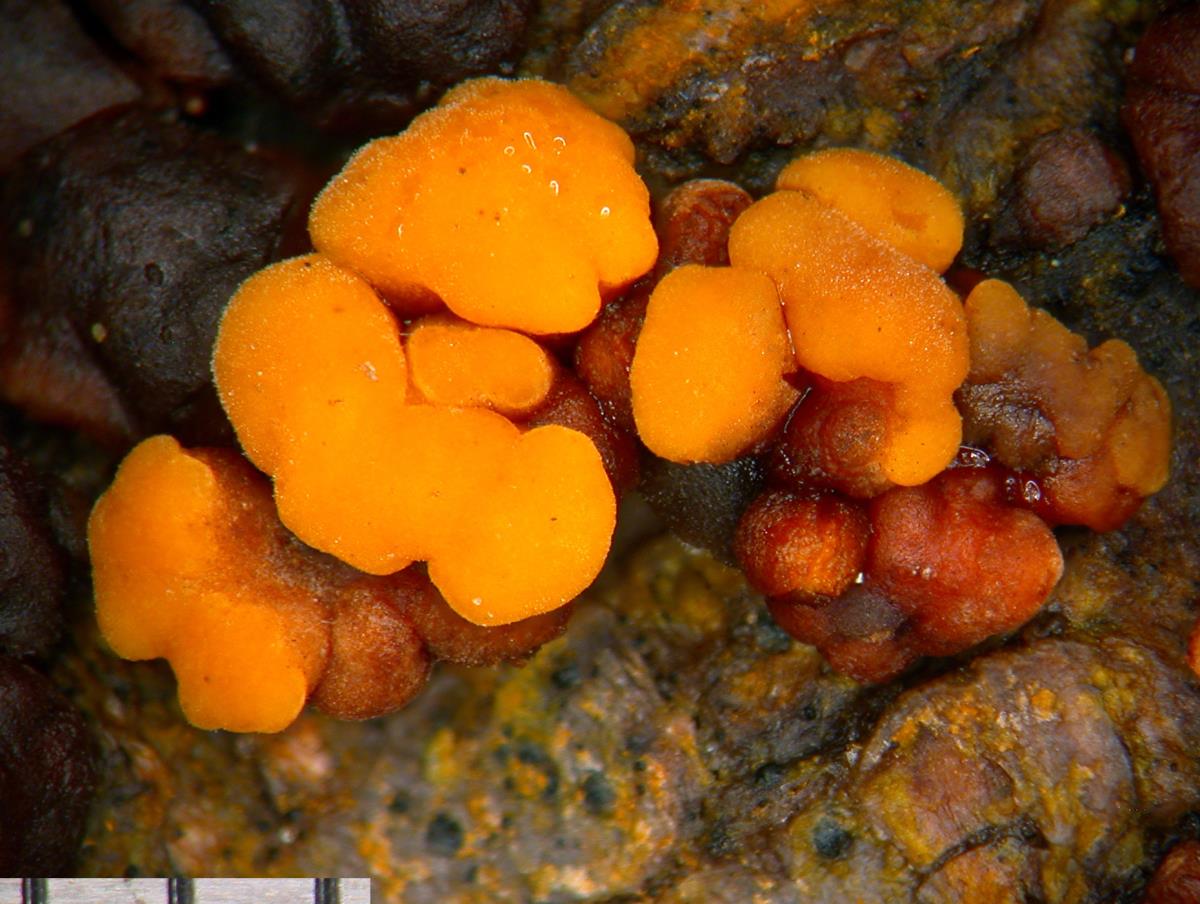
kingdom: Fungi
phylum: Basidiomycota
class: Agaricomycetes
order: Russulales
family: Stereaceae
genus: Aleurodiscus
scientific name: Aleurodiscus berggrenii
